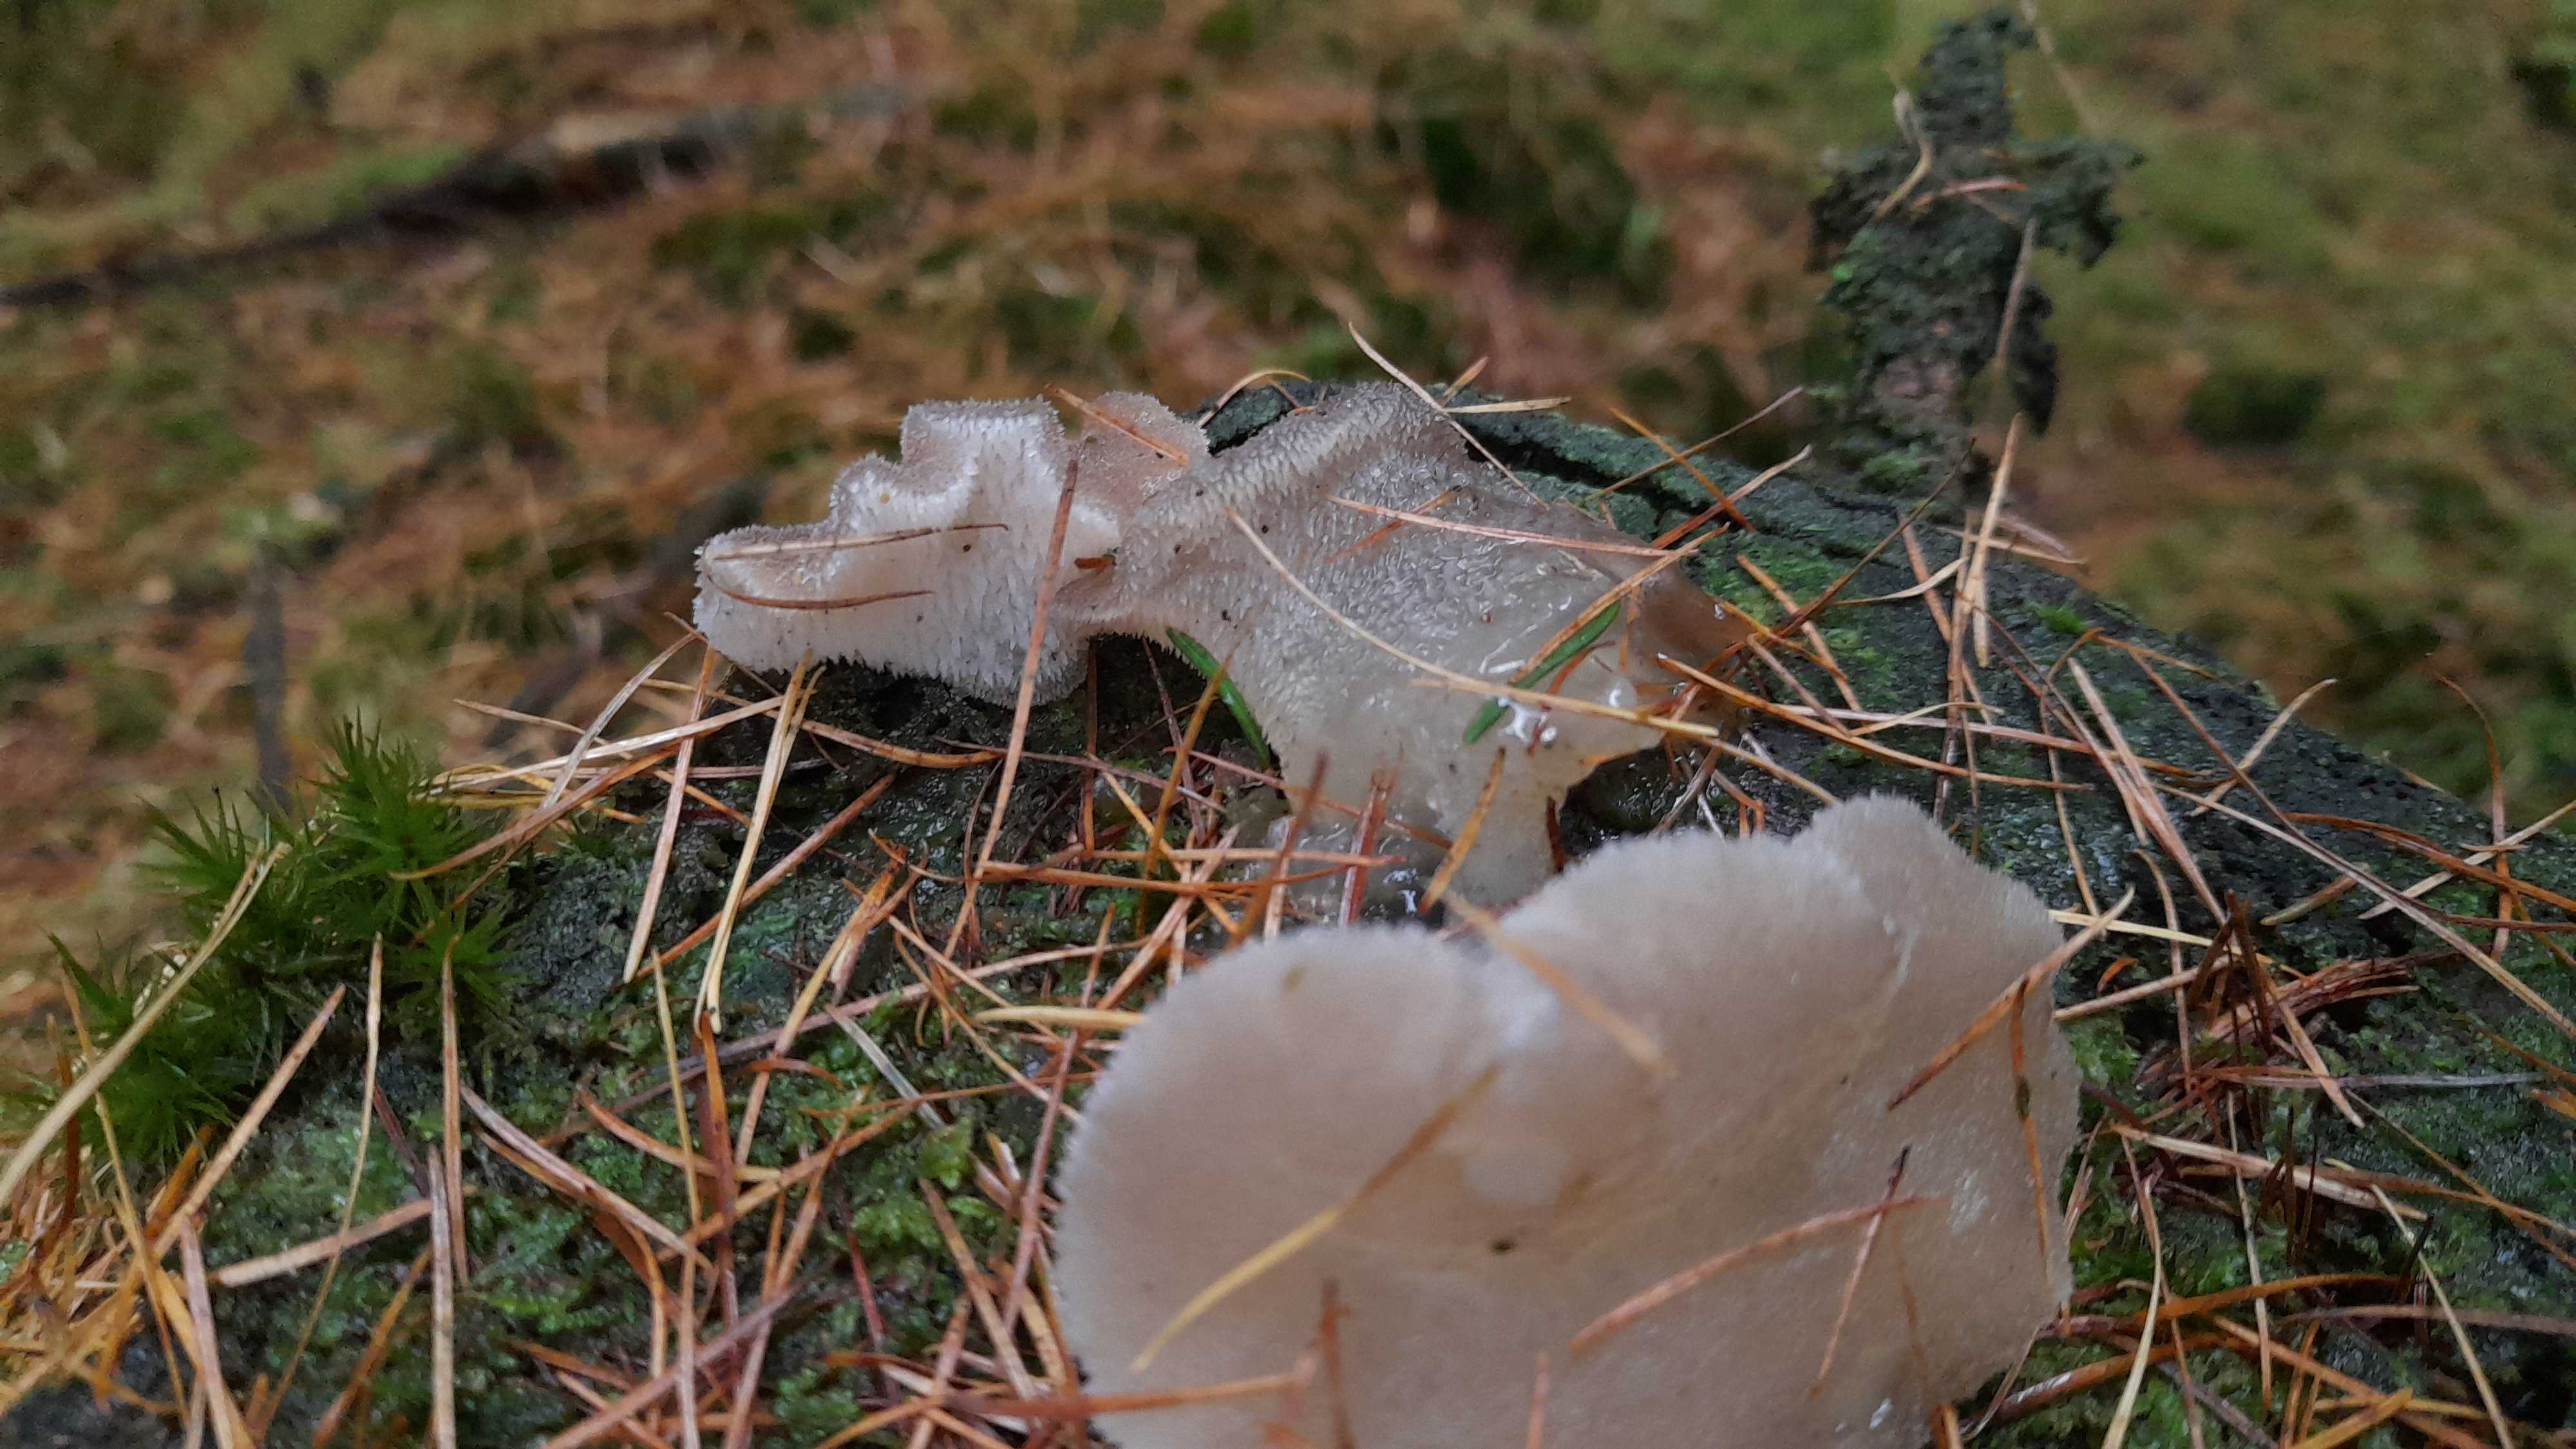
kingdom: Fungi
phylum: Basidiomycota
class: Agaricomycetes
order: Auriculariales
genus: Pseudohydnum
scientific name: Pseudohydnum gelatinosum
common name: bævretand
